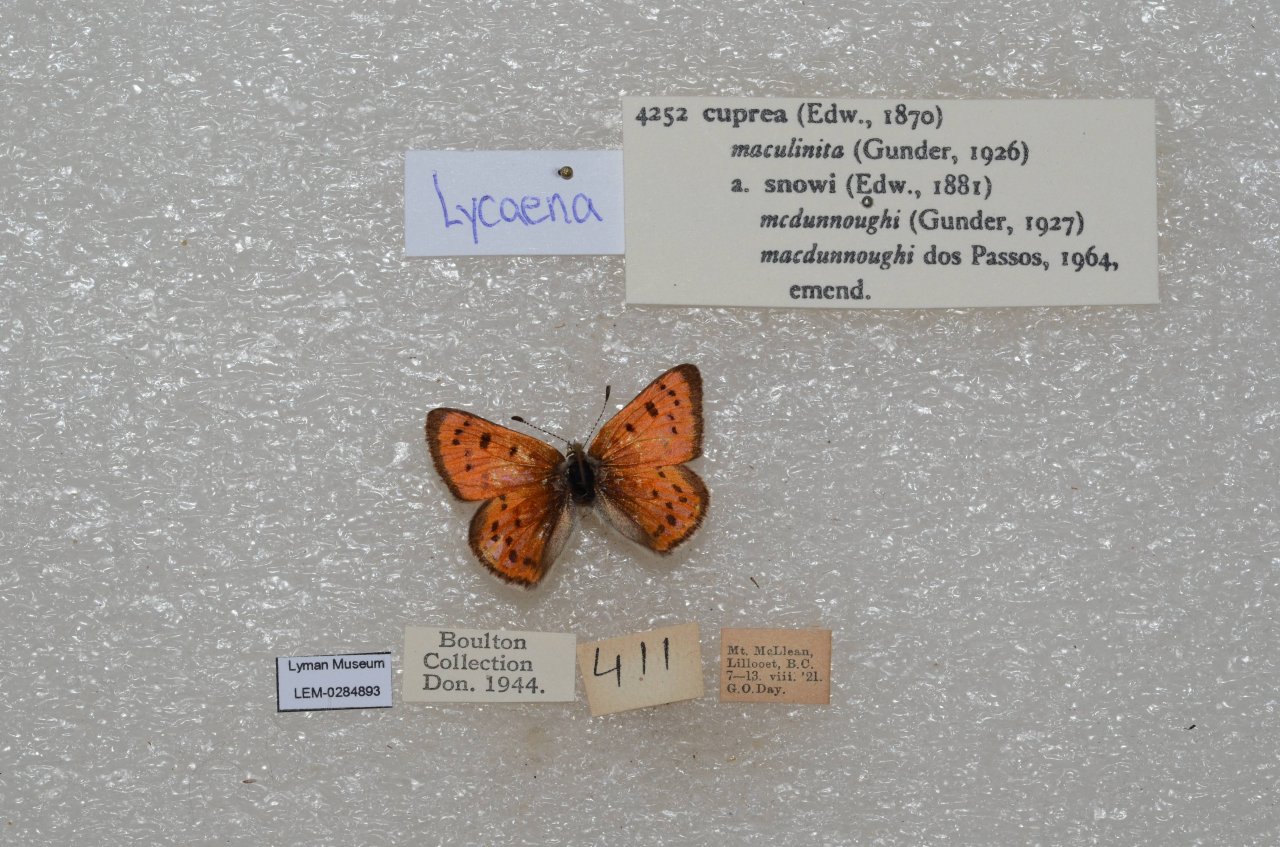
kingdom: Animalia
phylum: Arthropoda
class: Insecta
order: Lepidoptera
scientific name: Lepidoptera
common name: Butterflies
